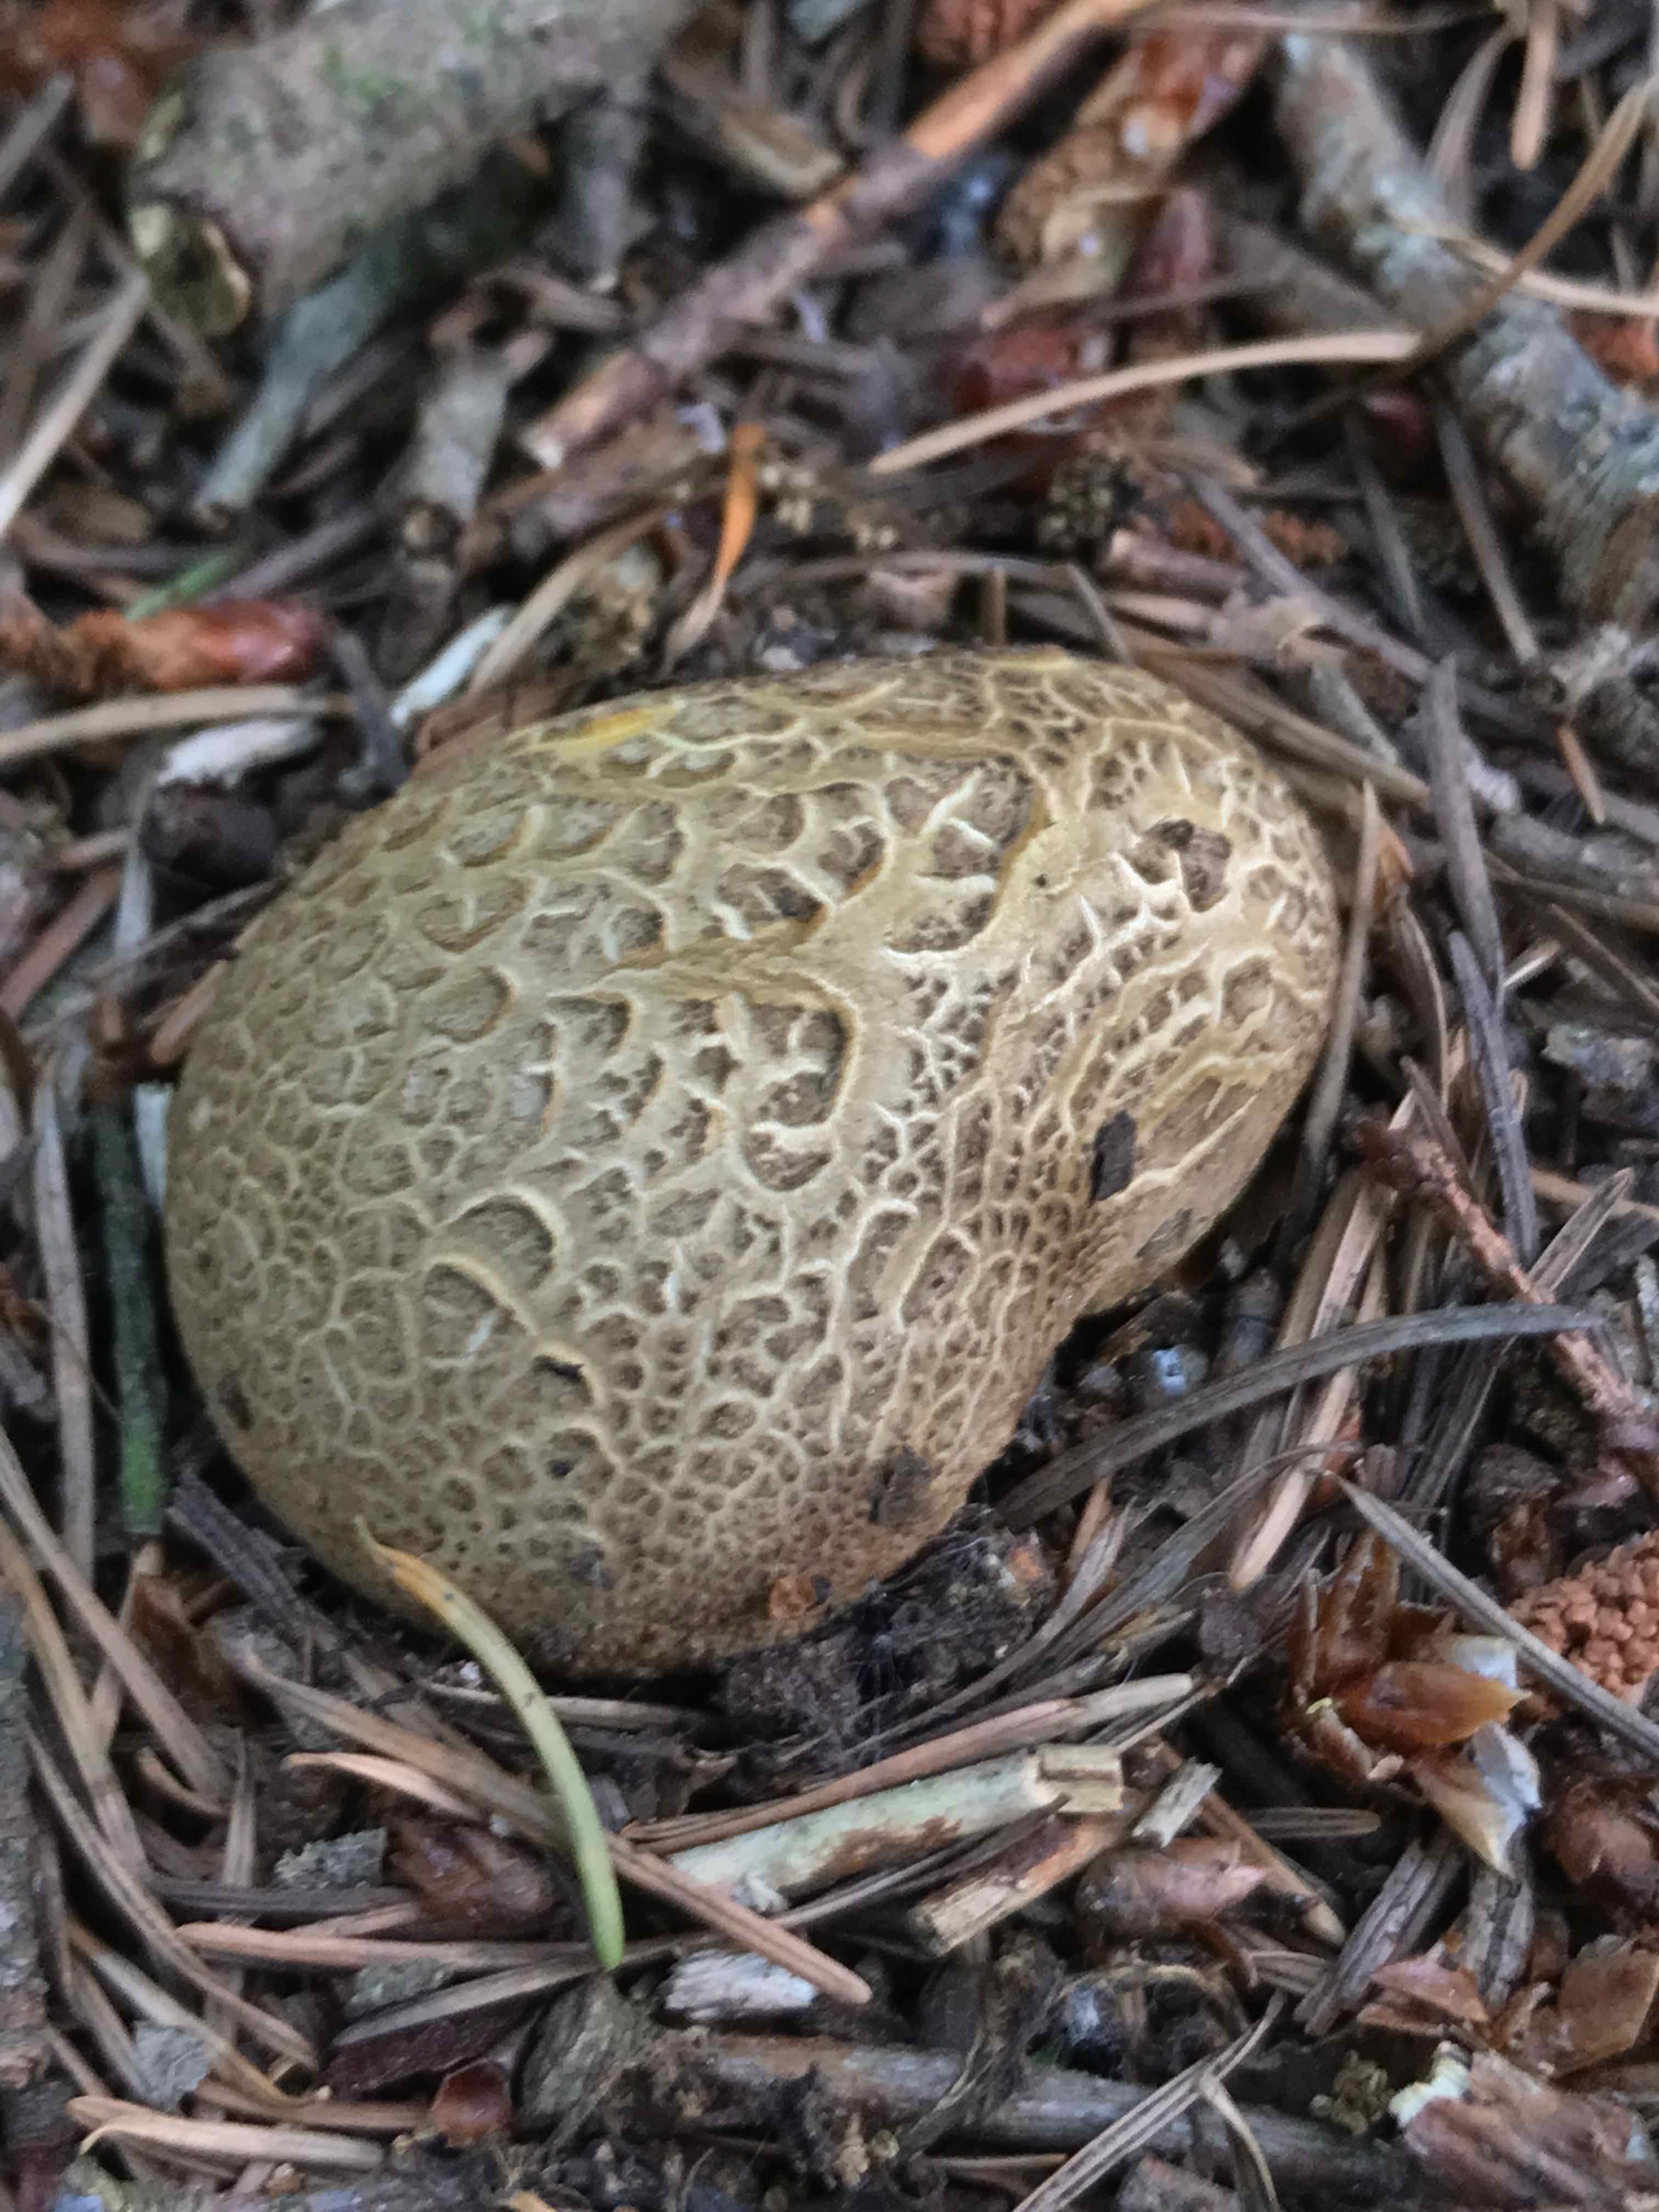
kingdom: Fungi
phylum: Basidiomycota
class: Agaricomycetes
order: Boletales
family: Sclerodermataceae
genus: Scleroderma
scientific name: Scleroderma citrinum
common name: almindelig bruskbold
